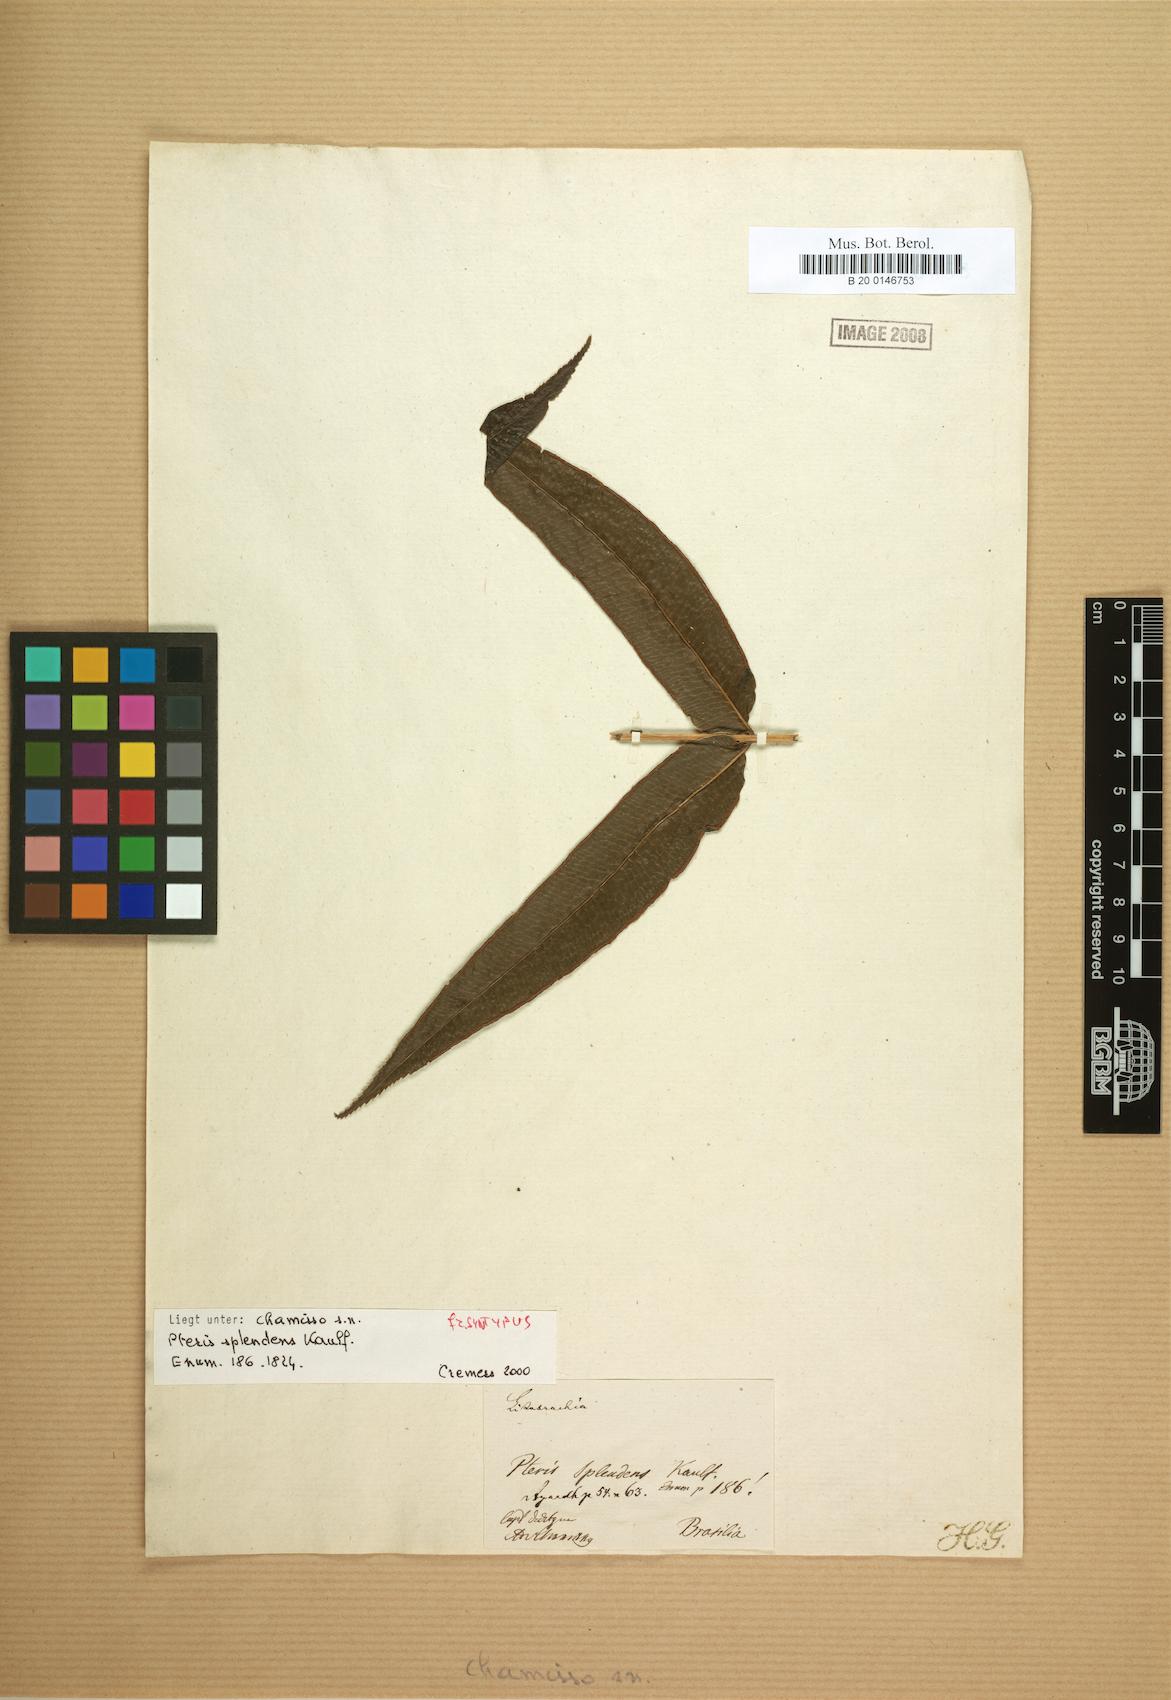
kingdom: Plantae
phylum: Tracheophyta
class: Polypodiopsida
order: Polypodiales
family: Pteridaceae
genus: Pteris
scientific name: Pteris splendens
